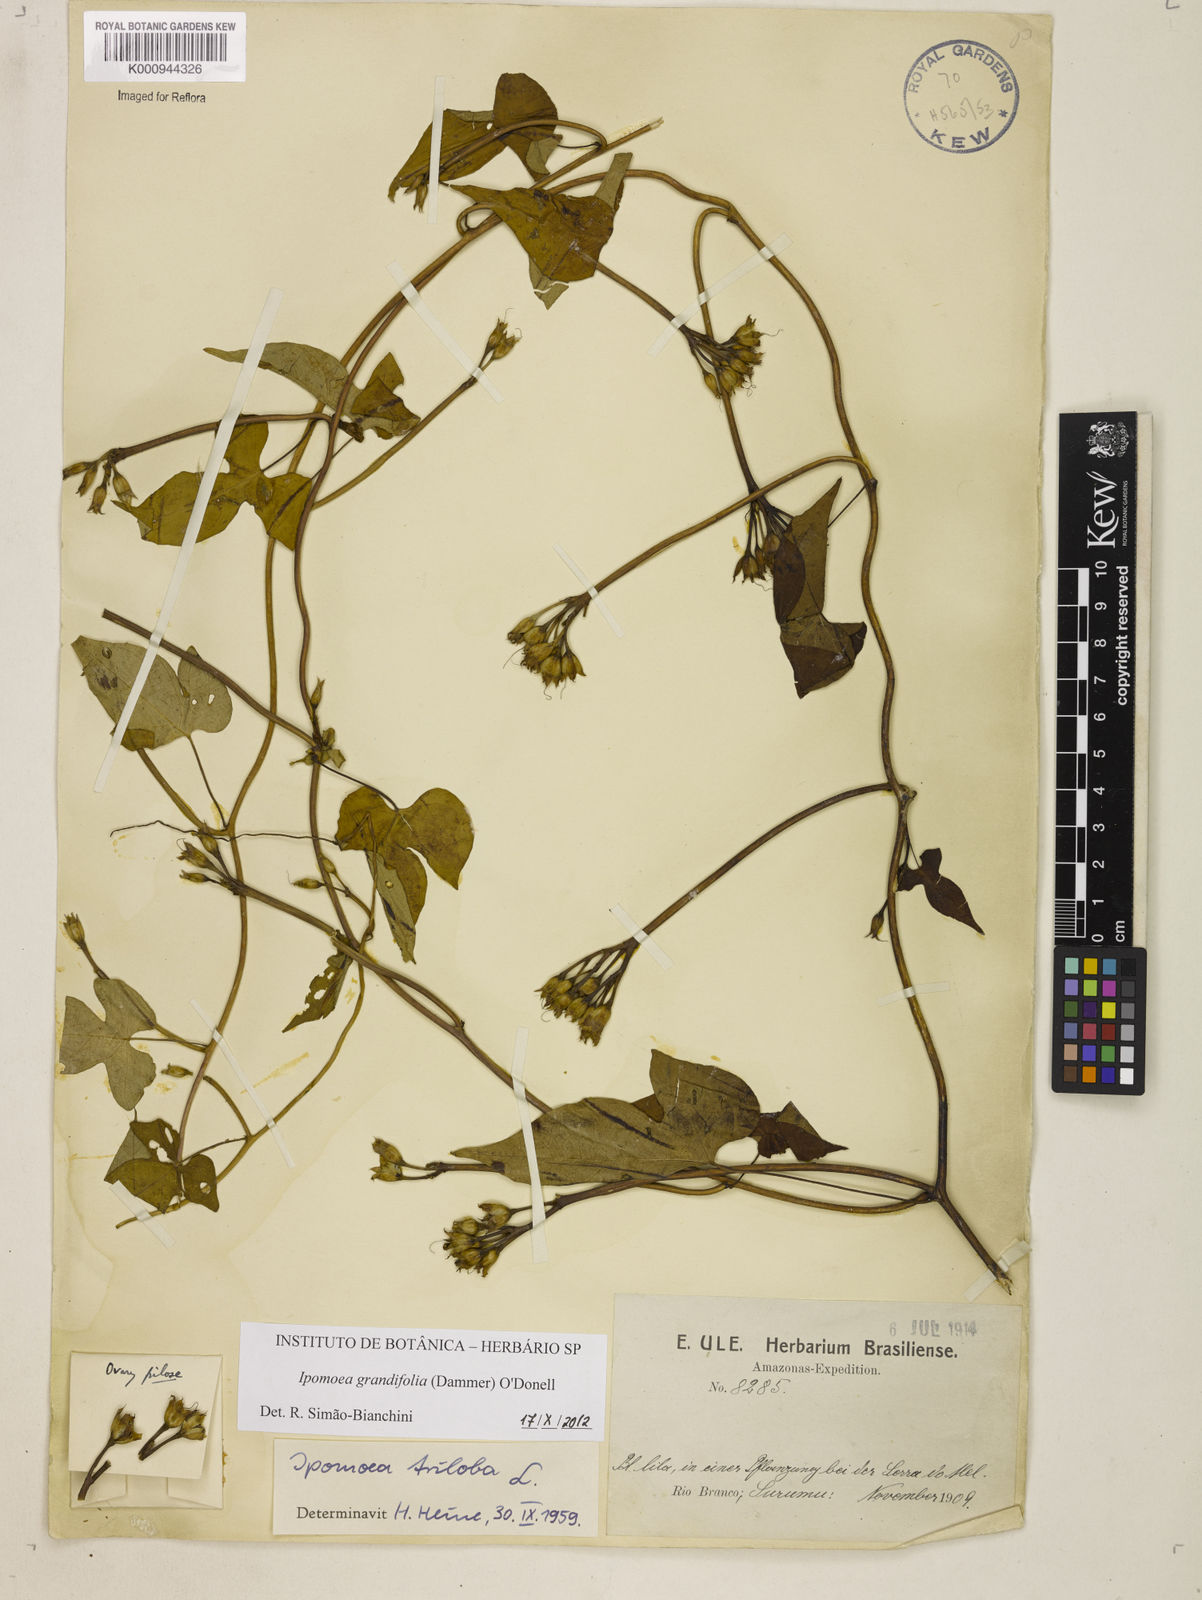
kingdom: Plantae
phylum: Tracheophyta
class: Magnoliopsida
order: Solanales
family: Convolvulaceae
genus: Ipomoea
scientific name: Ipomoea grandifolia
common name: Aiea morning glory
